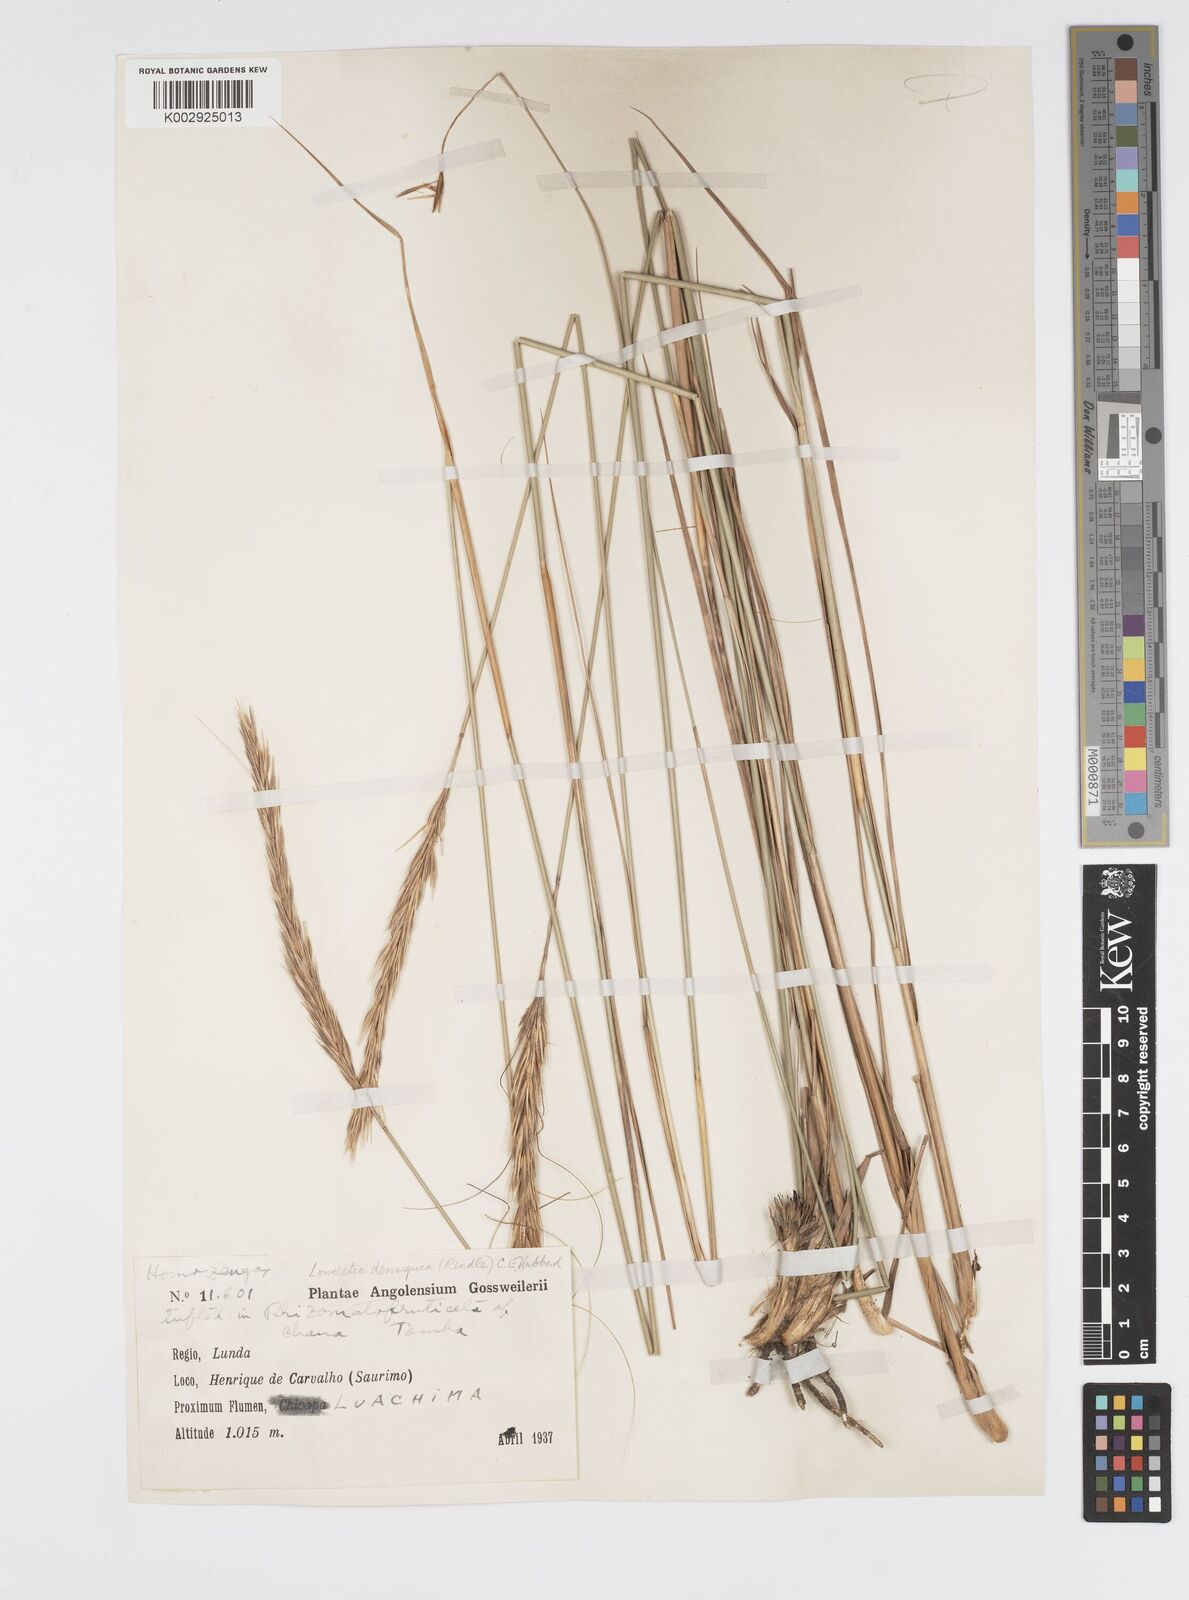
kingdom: Plantae
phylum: Tracheophyta
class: Liliopsida
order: Poales
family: Poaceae
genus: Loudetia
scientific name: Loudetia densispica
